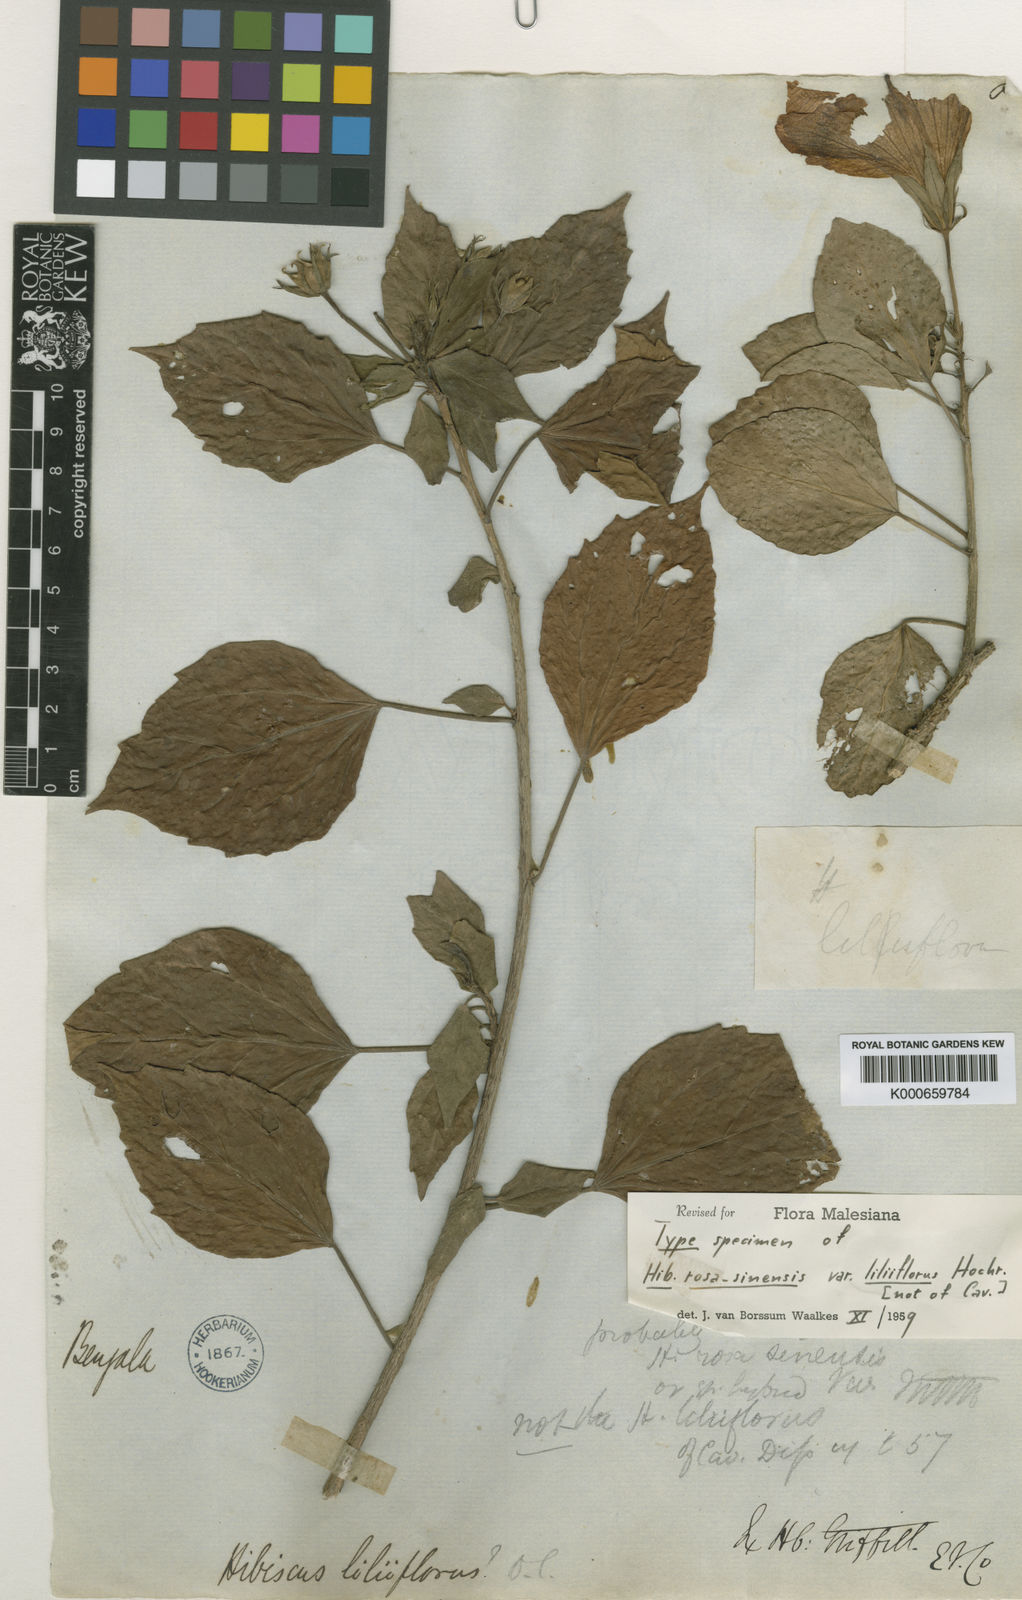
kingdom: Plantae
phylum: Tracheophyta
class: Magnoliopsida
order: Malvales
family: Malvaceae
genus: Hibiscus
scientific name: Hibiscus rosa-sinensis
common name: Hibiscus
